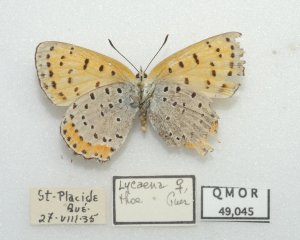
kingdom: Animalia
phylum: Arthropoda
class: Insecta
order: Lepidoptera
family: Sesiidae
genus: Sesia
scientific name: Sesia Lycaena hyllus
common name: Bronze Copper
